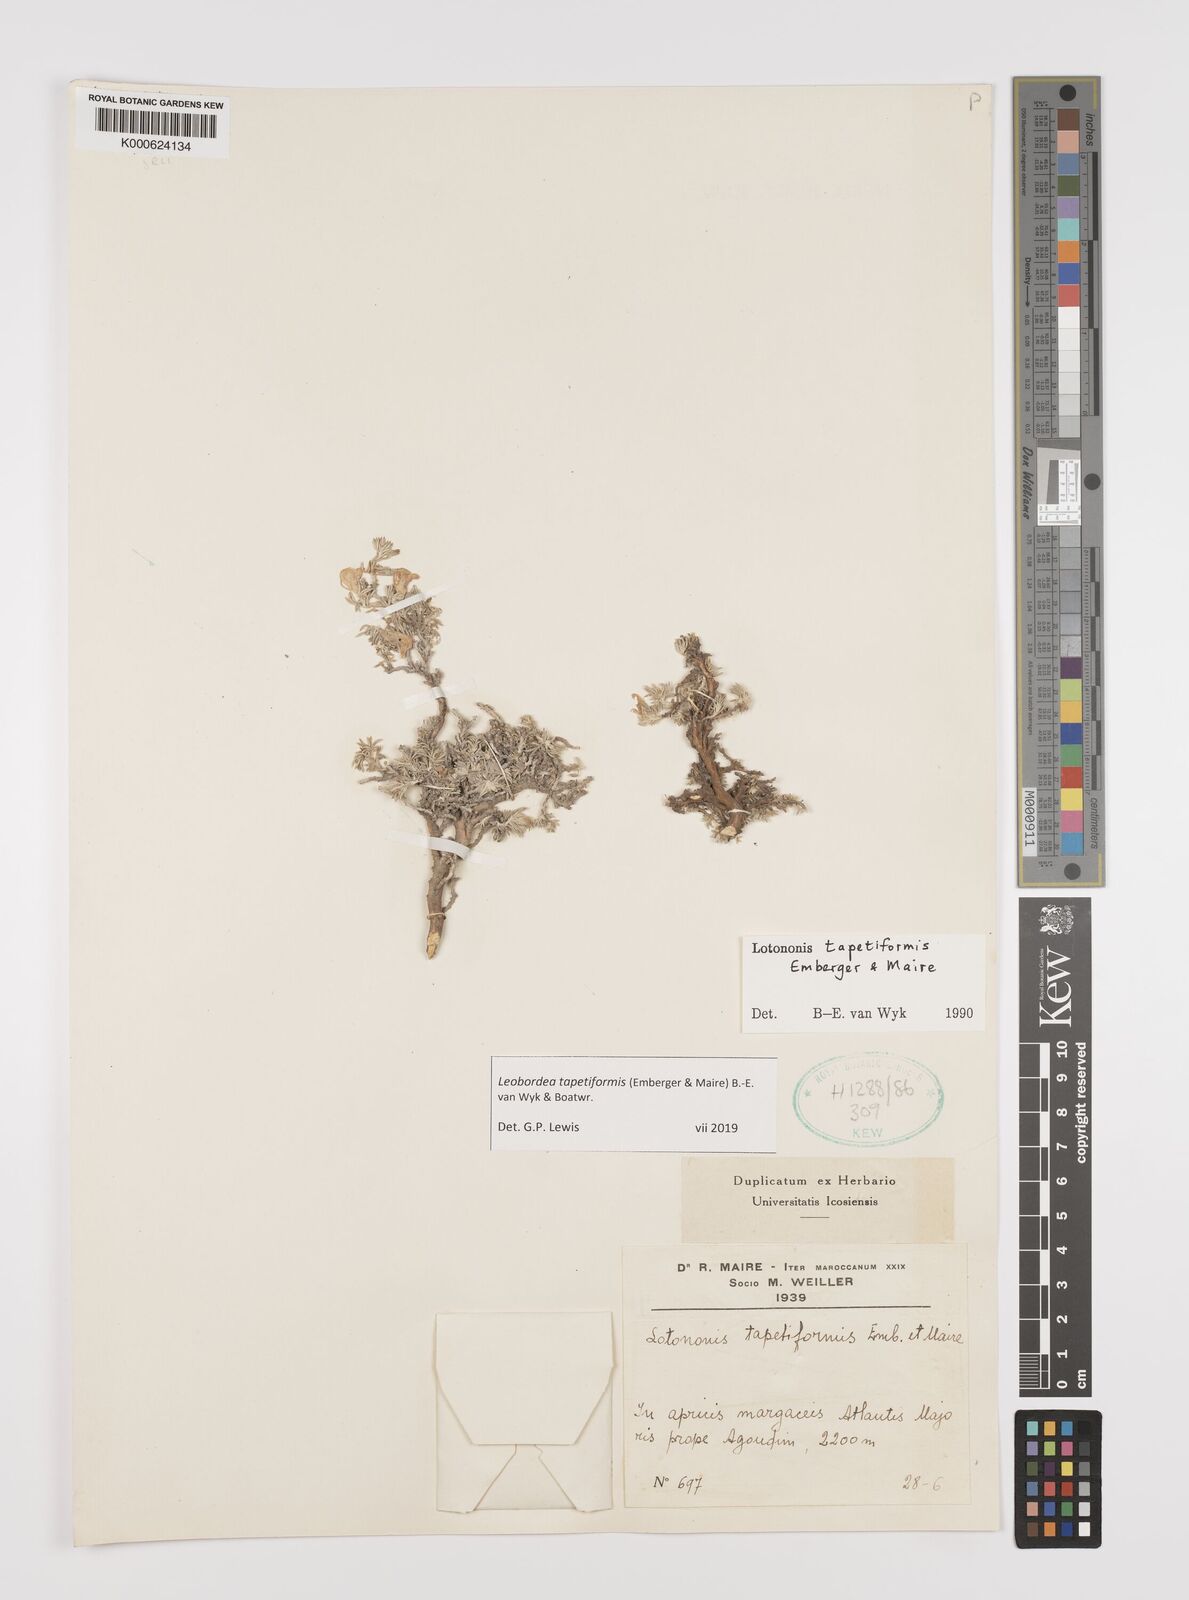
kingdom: Plantae
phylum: Tracheophyta
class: Magnoliopsida
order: Fabales
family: Fabaceae
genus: Leobordea
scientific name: Leobordea tapetiformis
